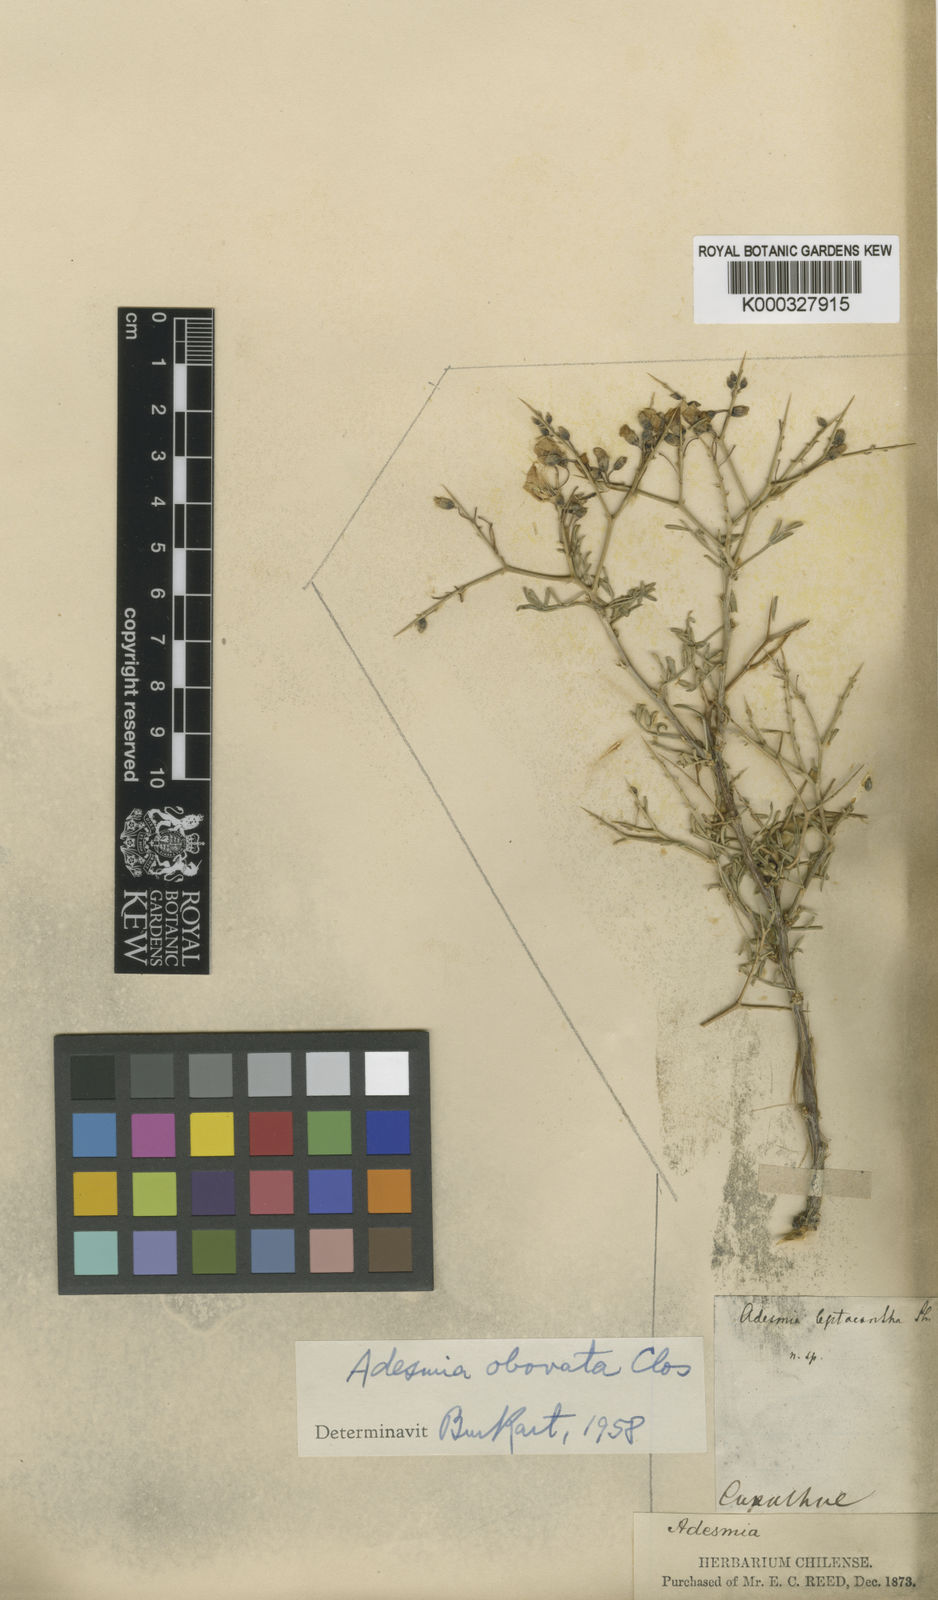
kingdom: Plantae
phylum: Tracheophyta
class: Magnoliopsida
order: Fabales
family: Fabaceae
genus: Adesmia
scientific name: Adesmia obovata
